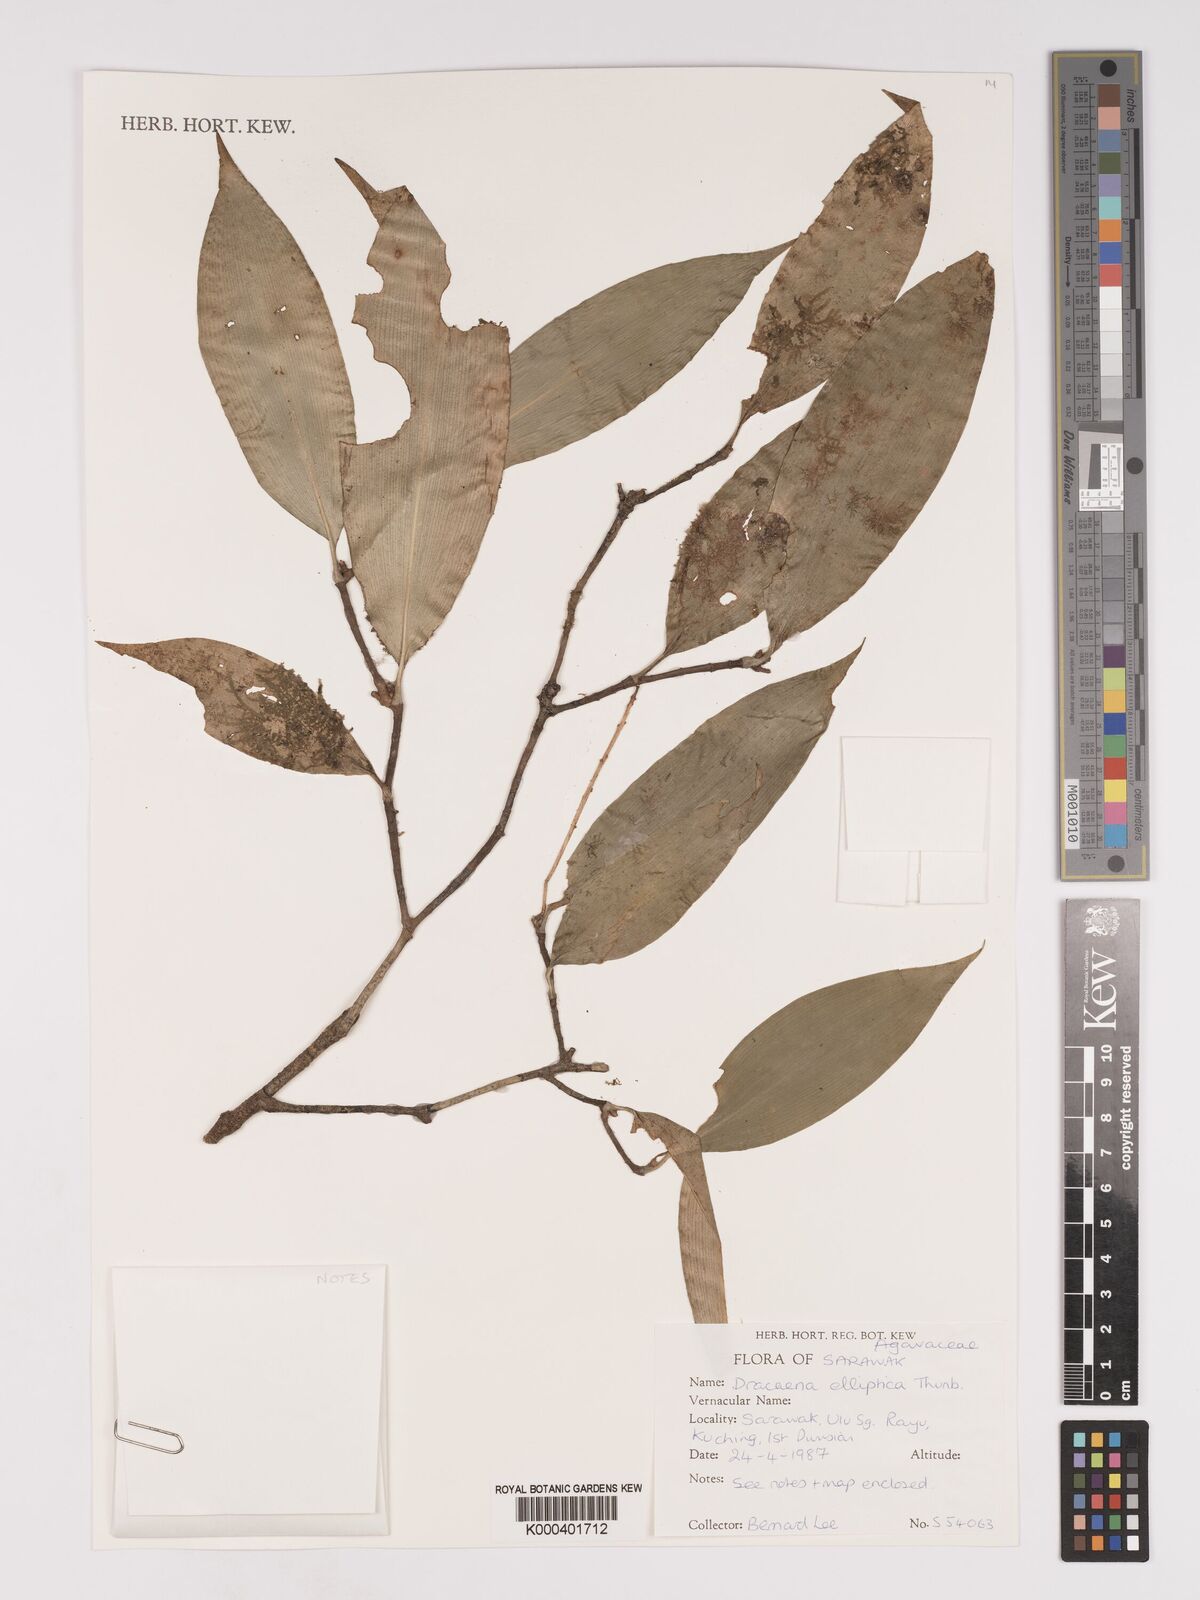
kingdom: Plantae
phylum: Tracheophyta
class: Liliopsida
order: Asparagales
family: Asparagaceae
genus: Dracaena
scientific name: Dracaena elliptica
